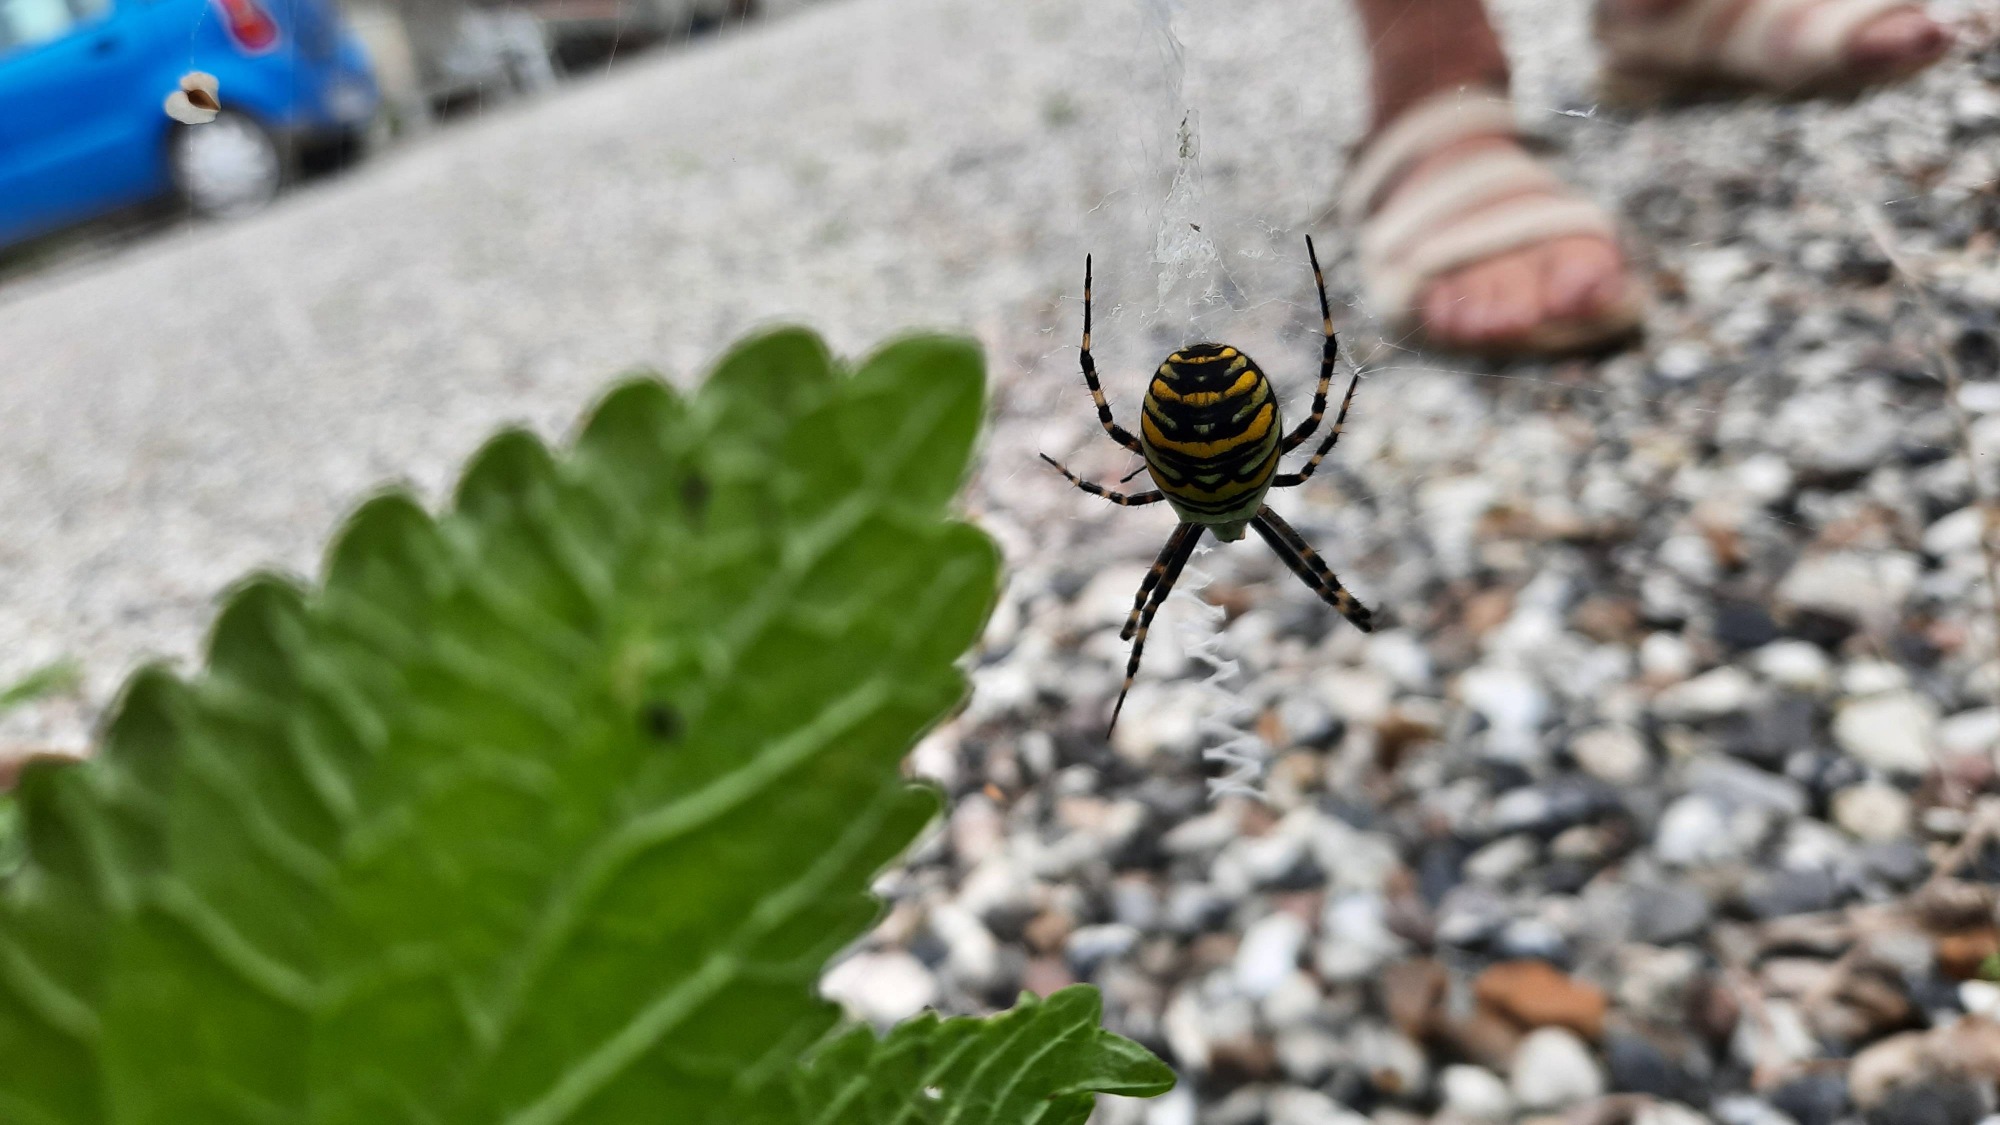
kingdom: Animalia
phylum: Arthropoda
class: Arachnida
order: Araneae
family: Araneidae
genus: Argiope
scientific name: Argiope bruennichi
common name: Hvepseedderkop
